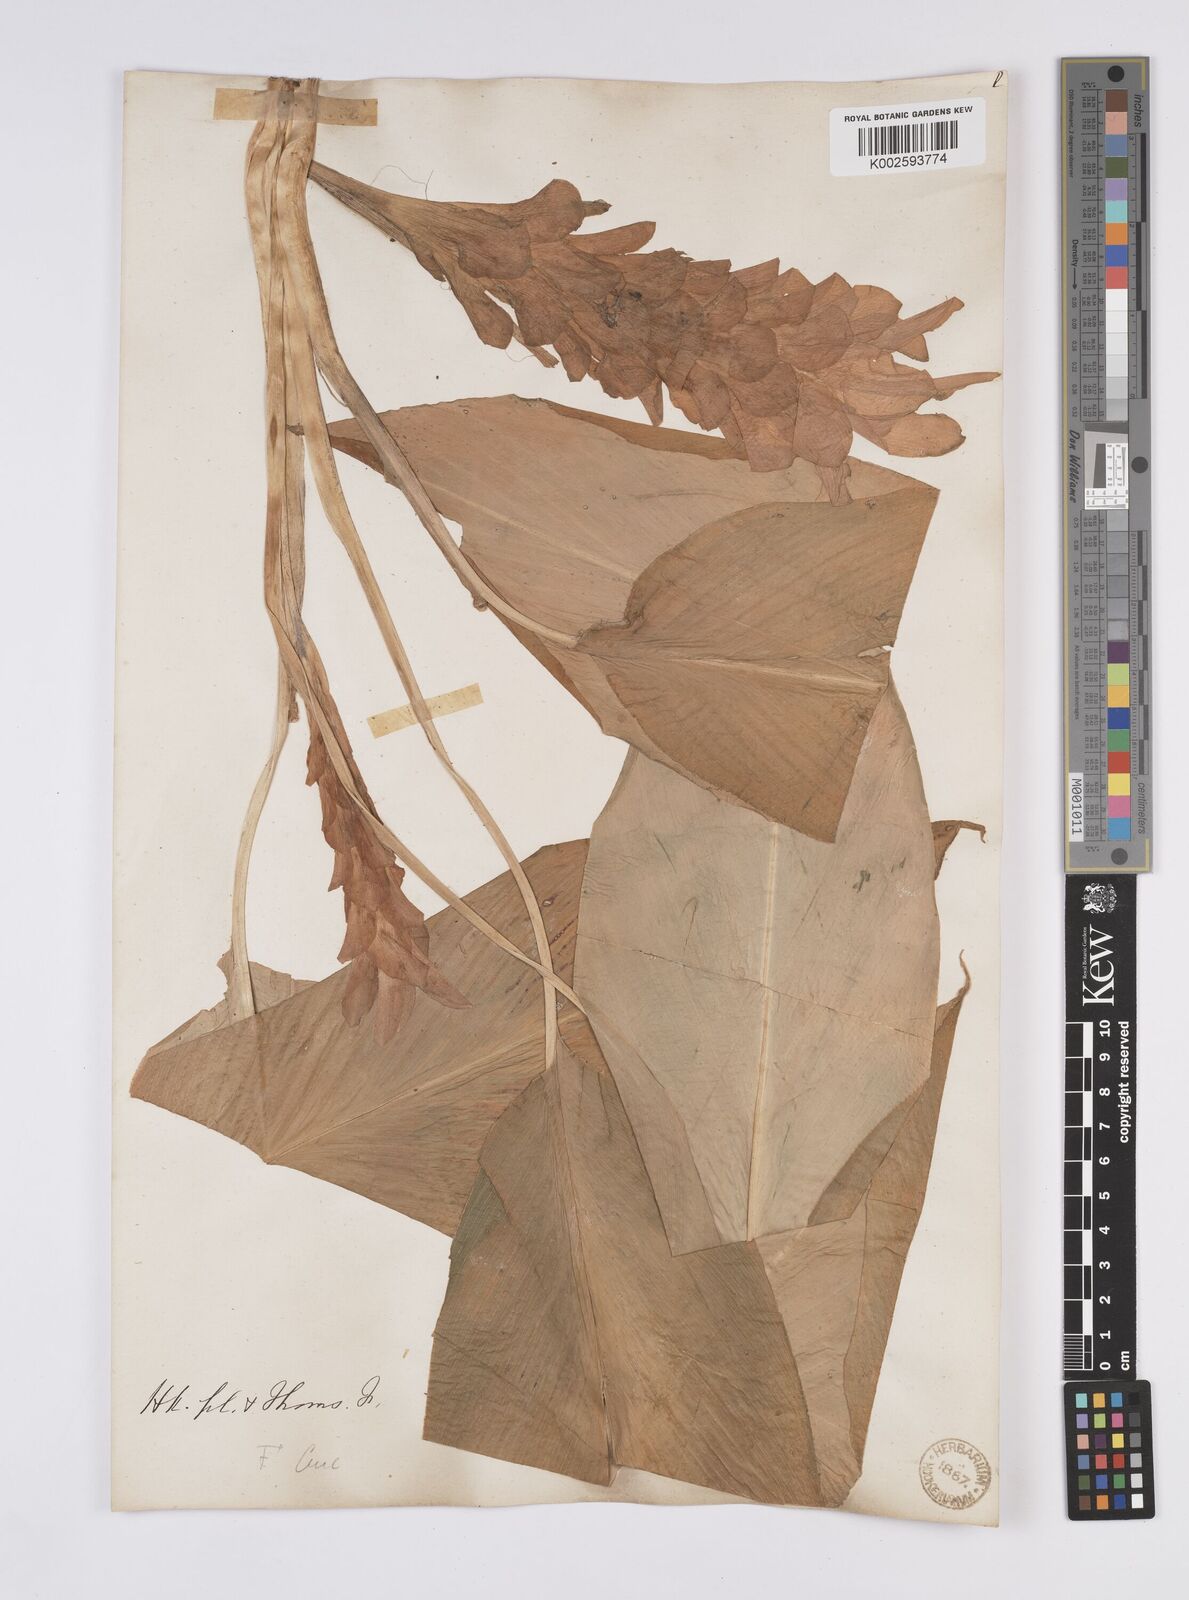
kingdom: Plantae
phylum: Tracheophyta
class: Liliopsida
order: Zingiberales
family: Zingiberaceae
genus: Curcuma
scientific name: Curcuma
